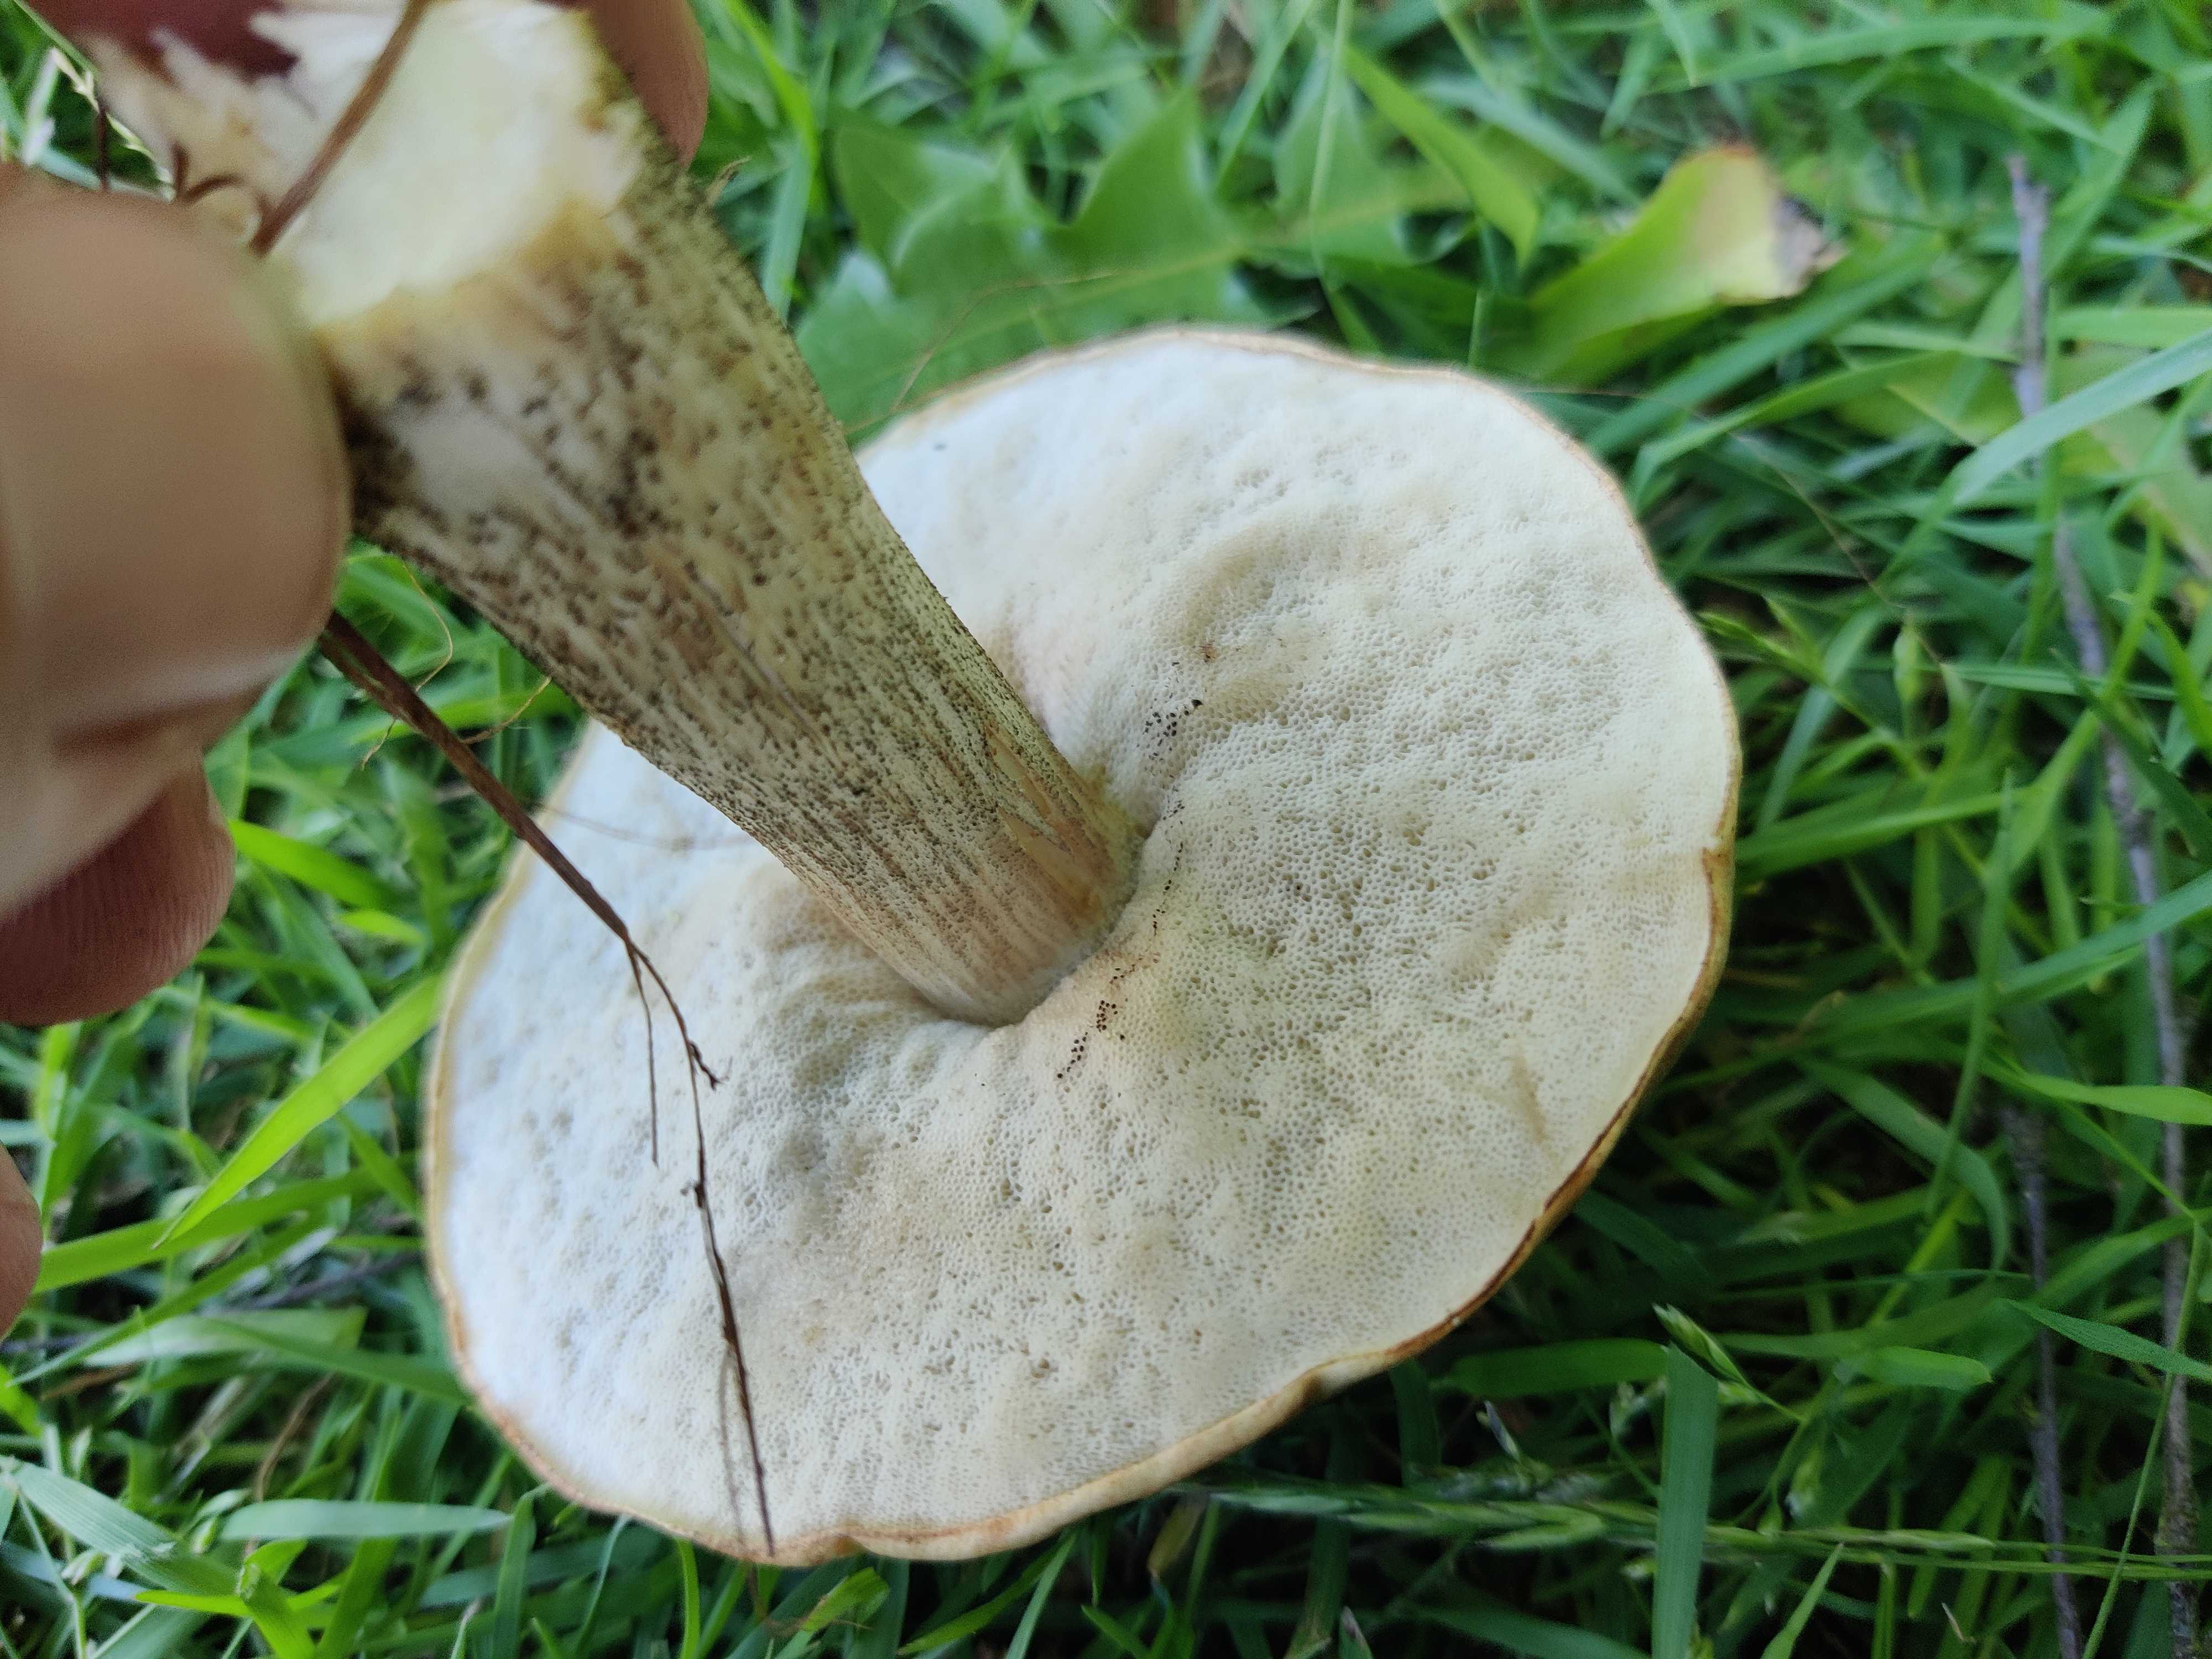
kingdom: Fungi
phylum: Basidiomycota
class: Agaricomycetes
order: Boletales
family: Boletaceae
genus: Leccinum
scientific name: Leccinum scabrum
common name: brun skælrørhat
